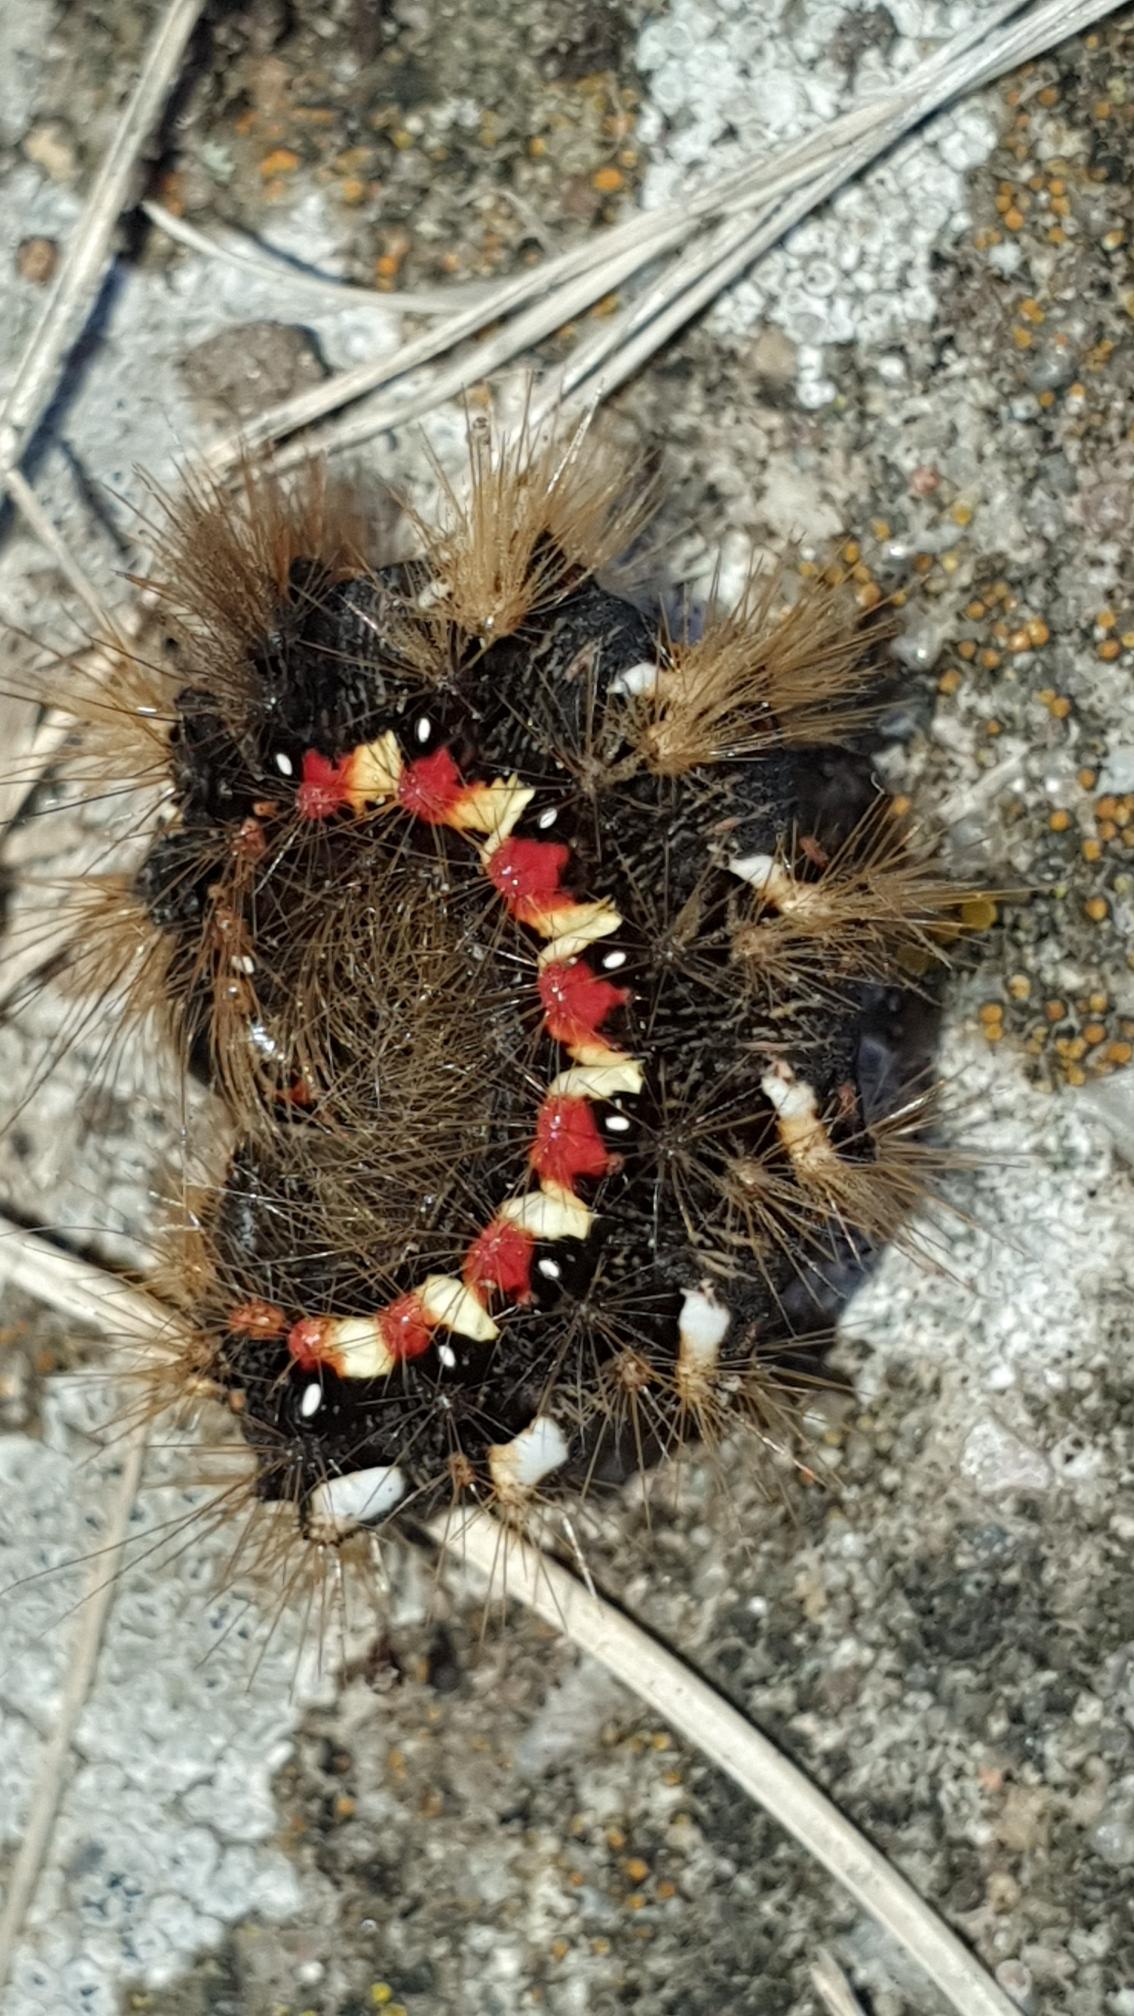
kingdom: Animalia
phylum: Arthropoda
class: Insecta
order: Lepidoptera
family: Noctuidae
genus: Acronicta
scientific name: Acronicta rumicis
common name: Syreugle
